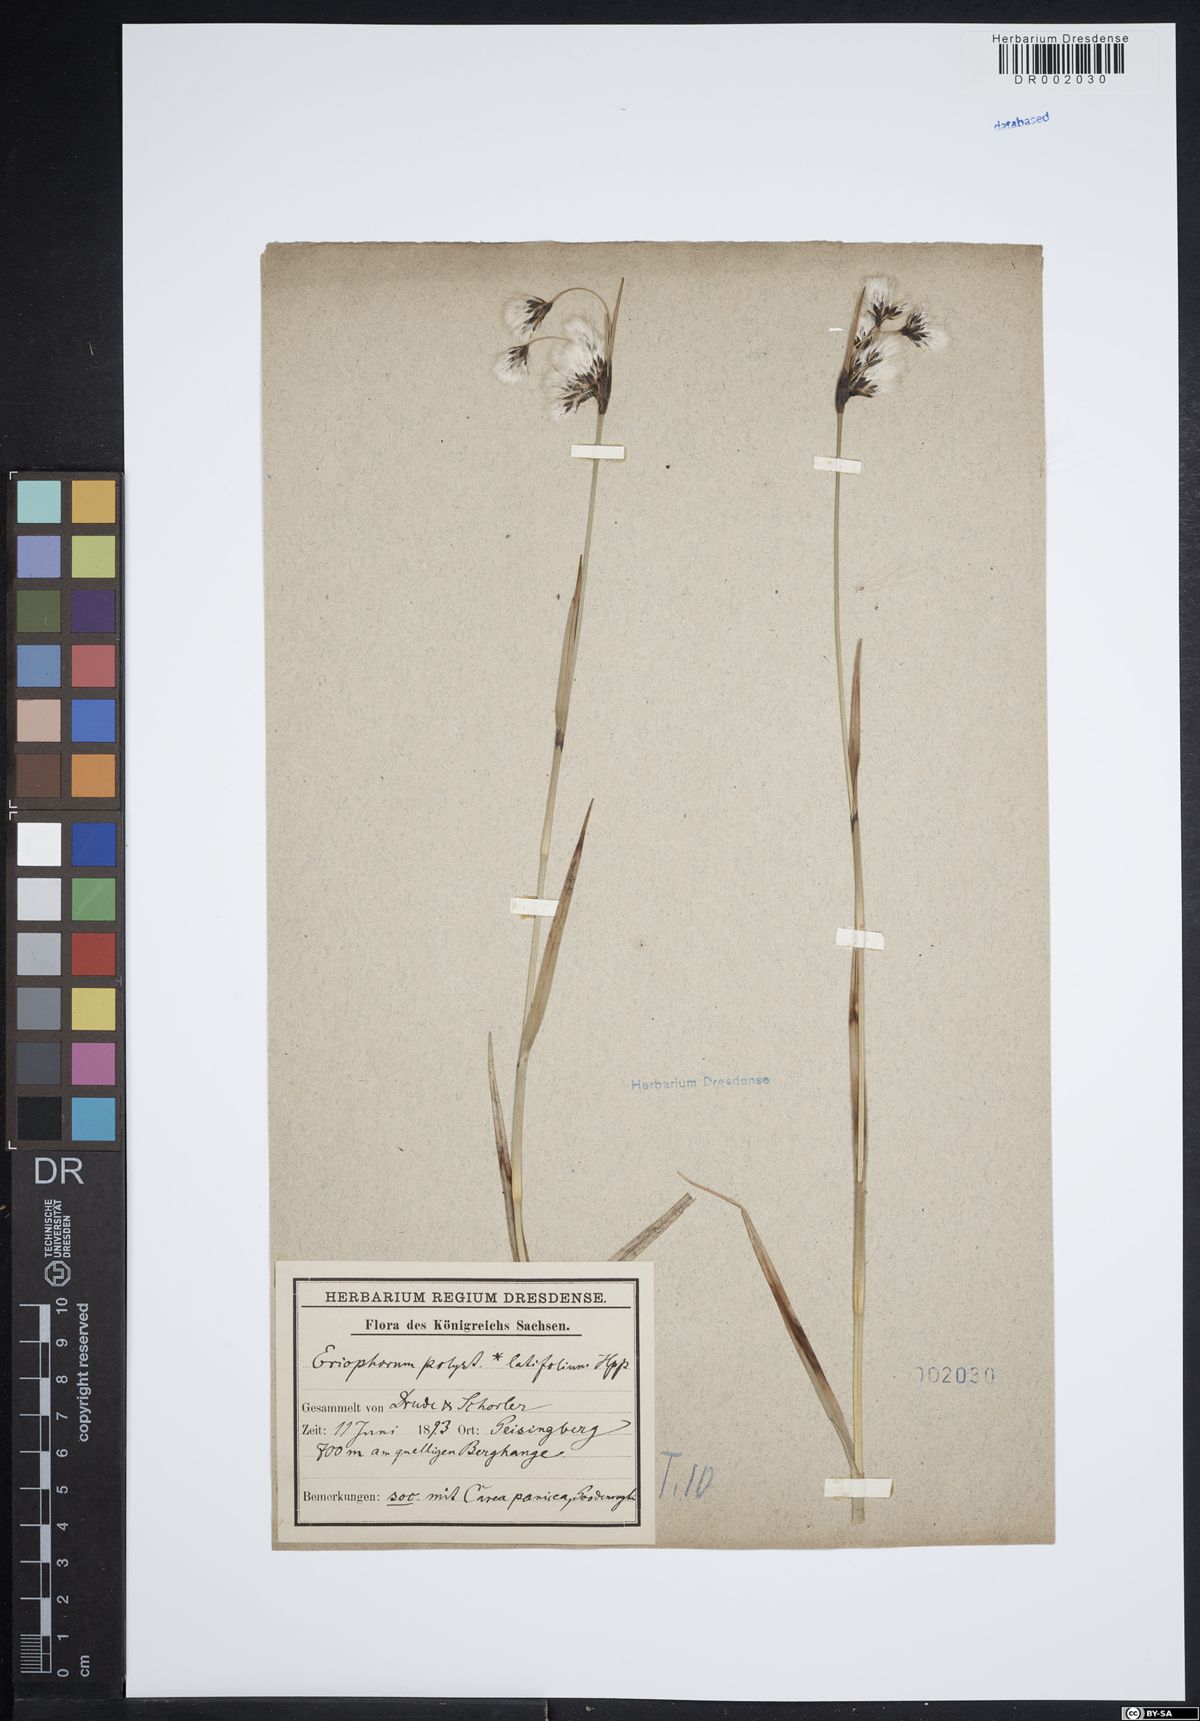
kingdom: Plantae
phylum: Tracheophyta
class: Liliopsida
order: Poales
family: Cyperaceae
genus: Eriophorum
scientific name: Eriophorum latifolium
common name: Broad-leaved cottongrass
